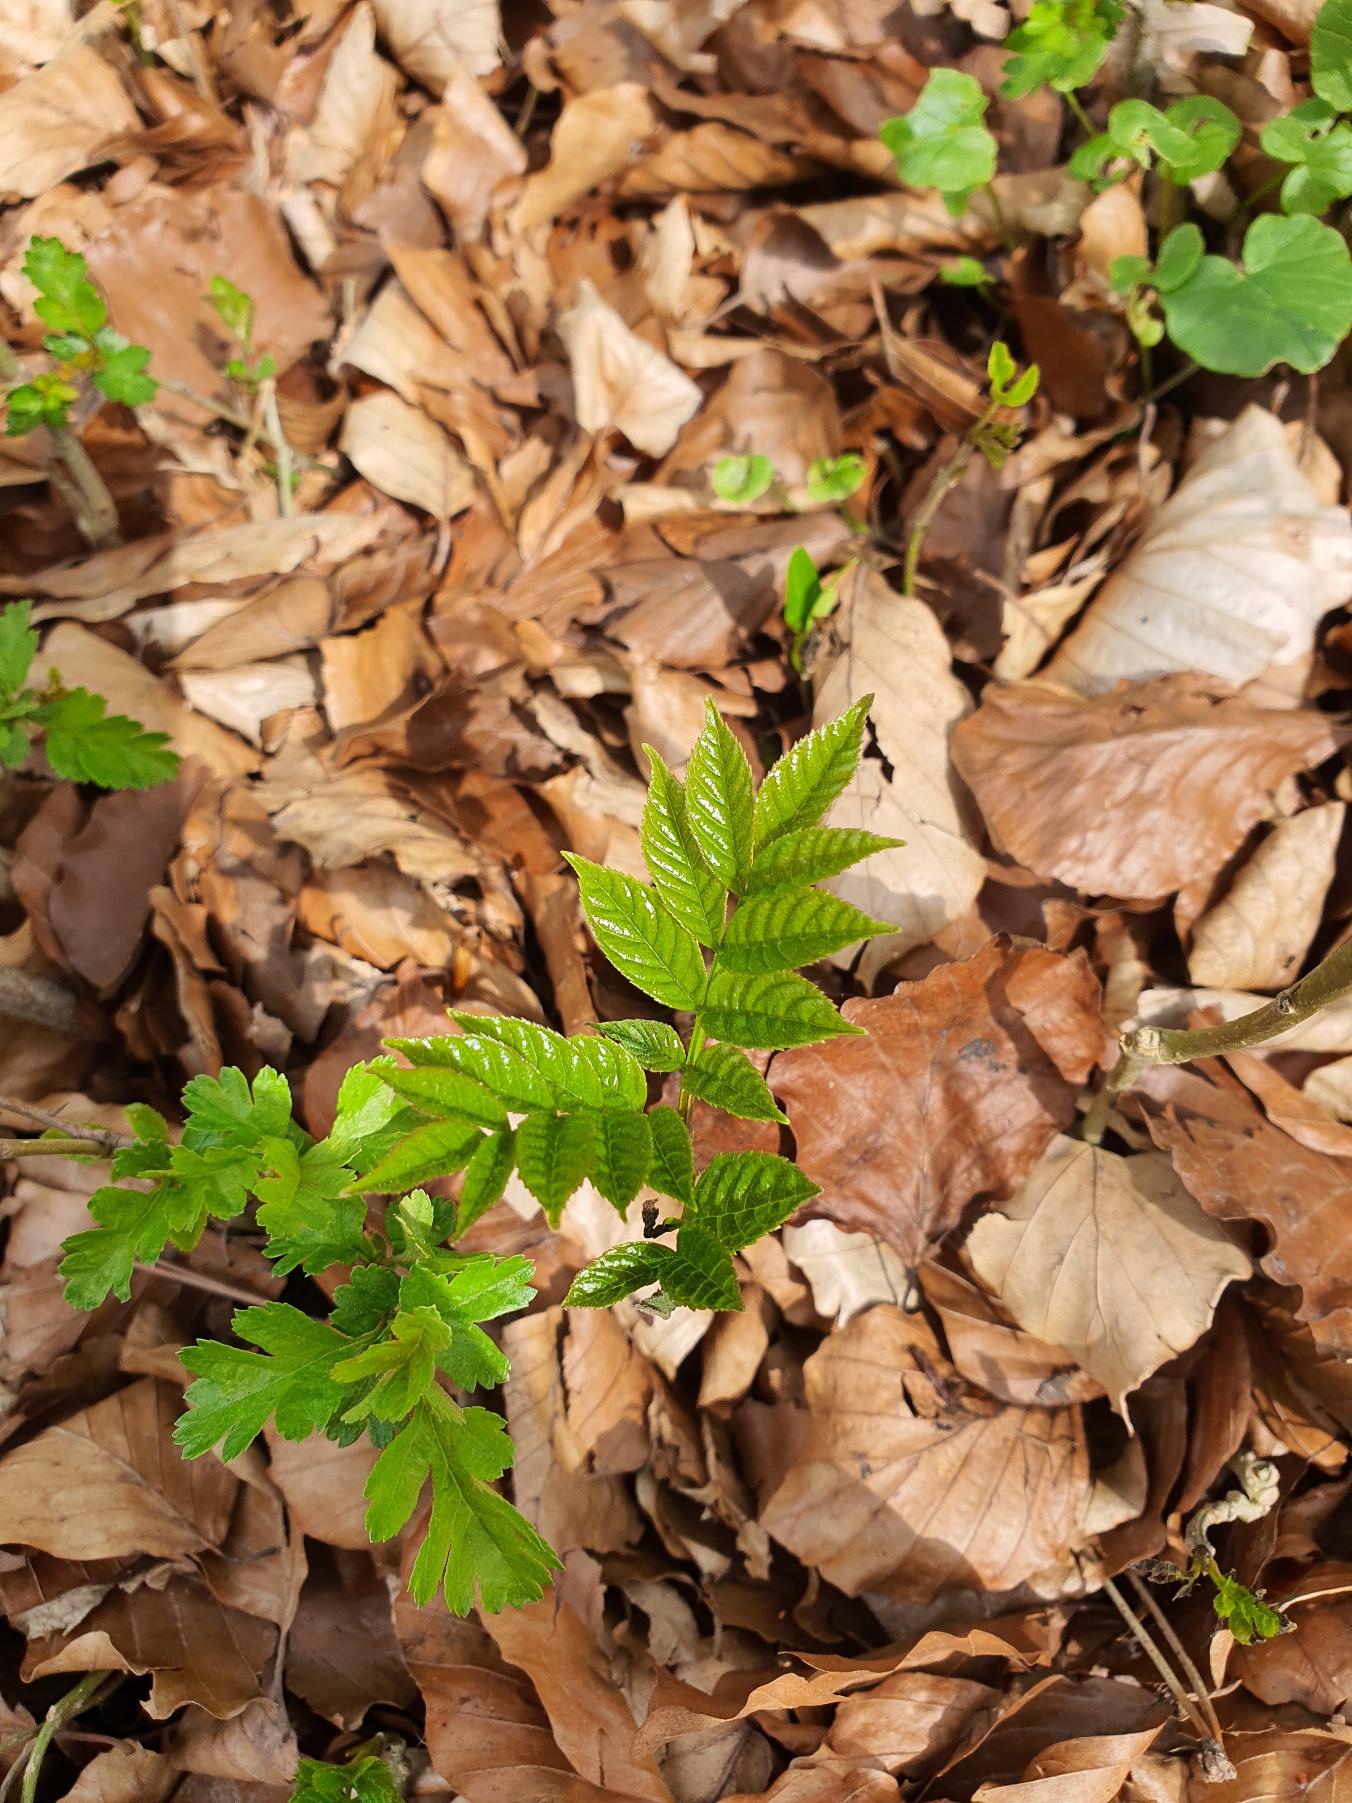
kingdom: Plantae
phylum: Tracheophyta
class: Magnoliopsida
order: Lamiales
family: Oleaceae
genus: Fraxinus
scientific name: Fraxinus excelsior
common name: Ask
